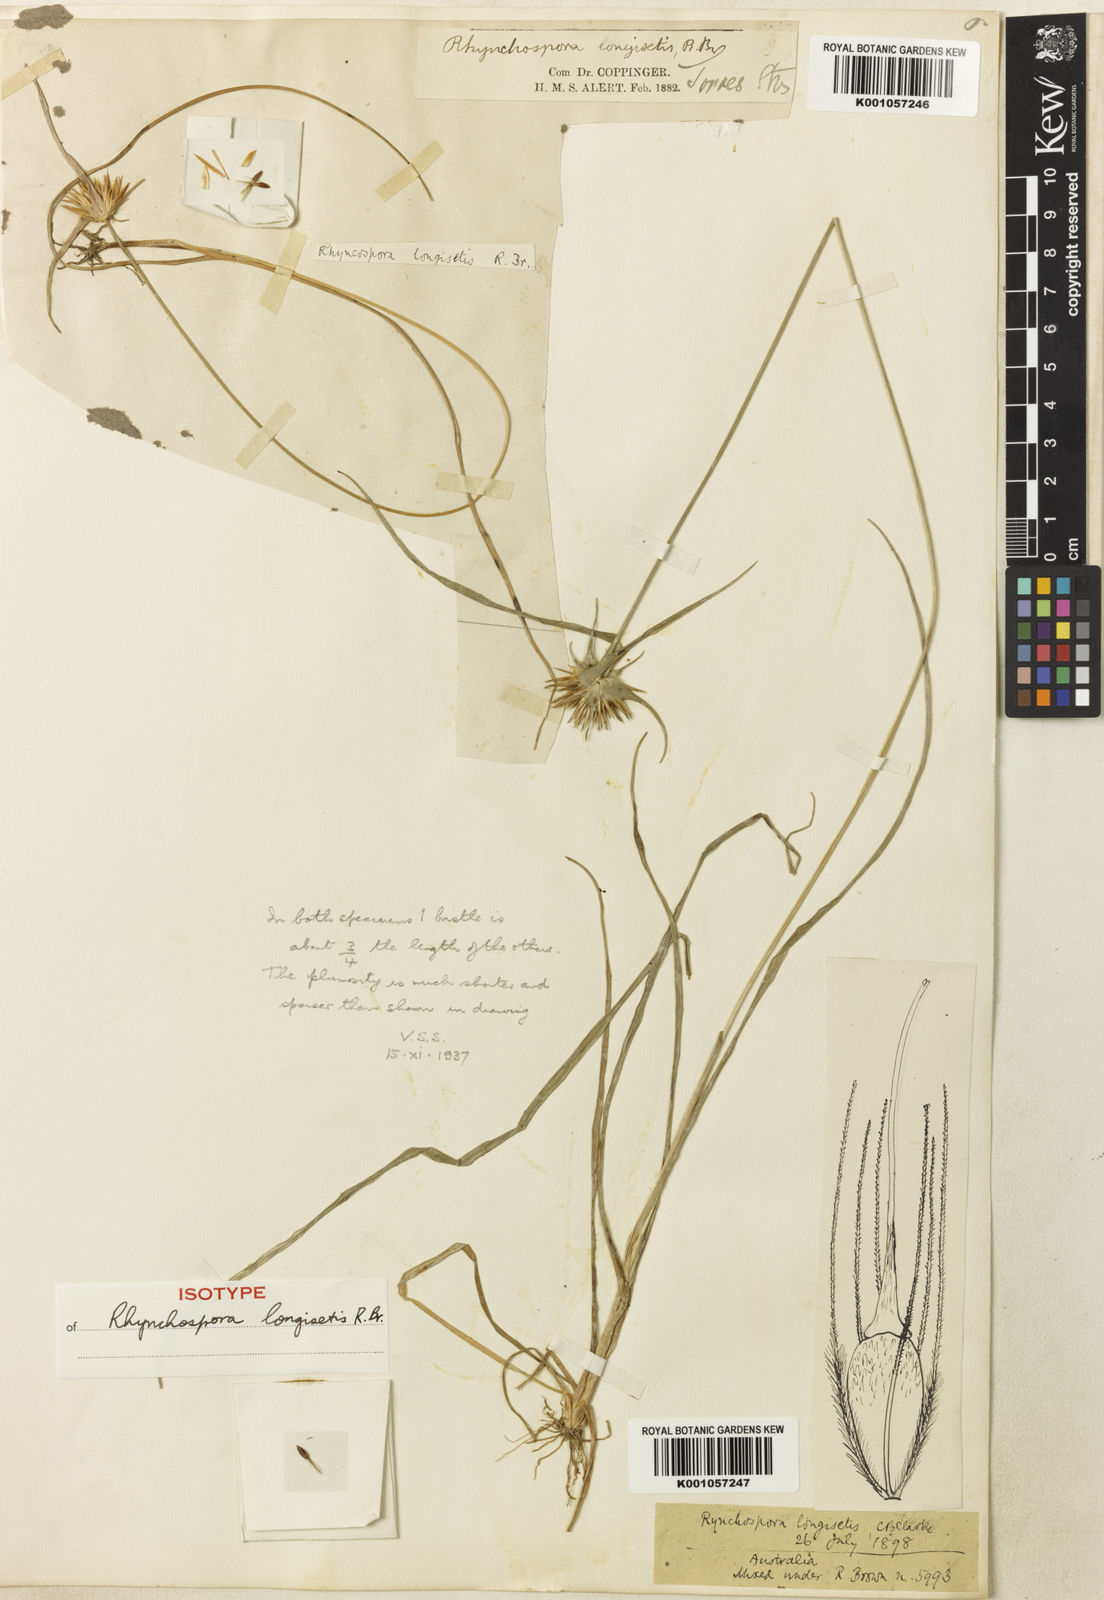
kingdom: Plantae
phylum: Tracheophyta
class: Liliopsida
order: Poales
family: Cyperaceae
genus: Rhynchospora
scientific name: Rhynchospora longisetis
